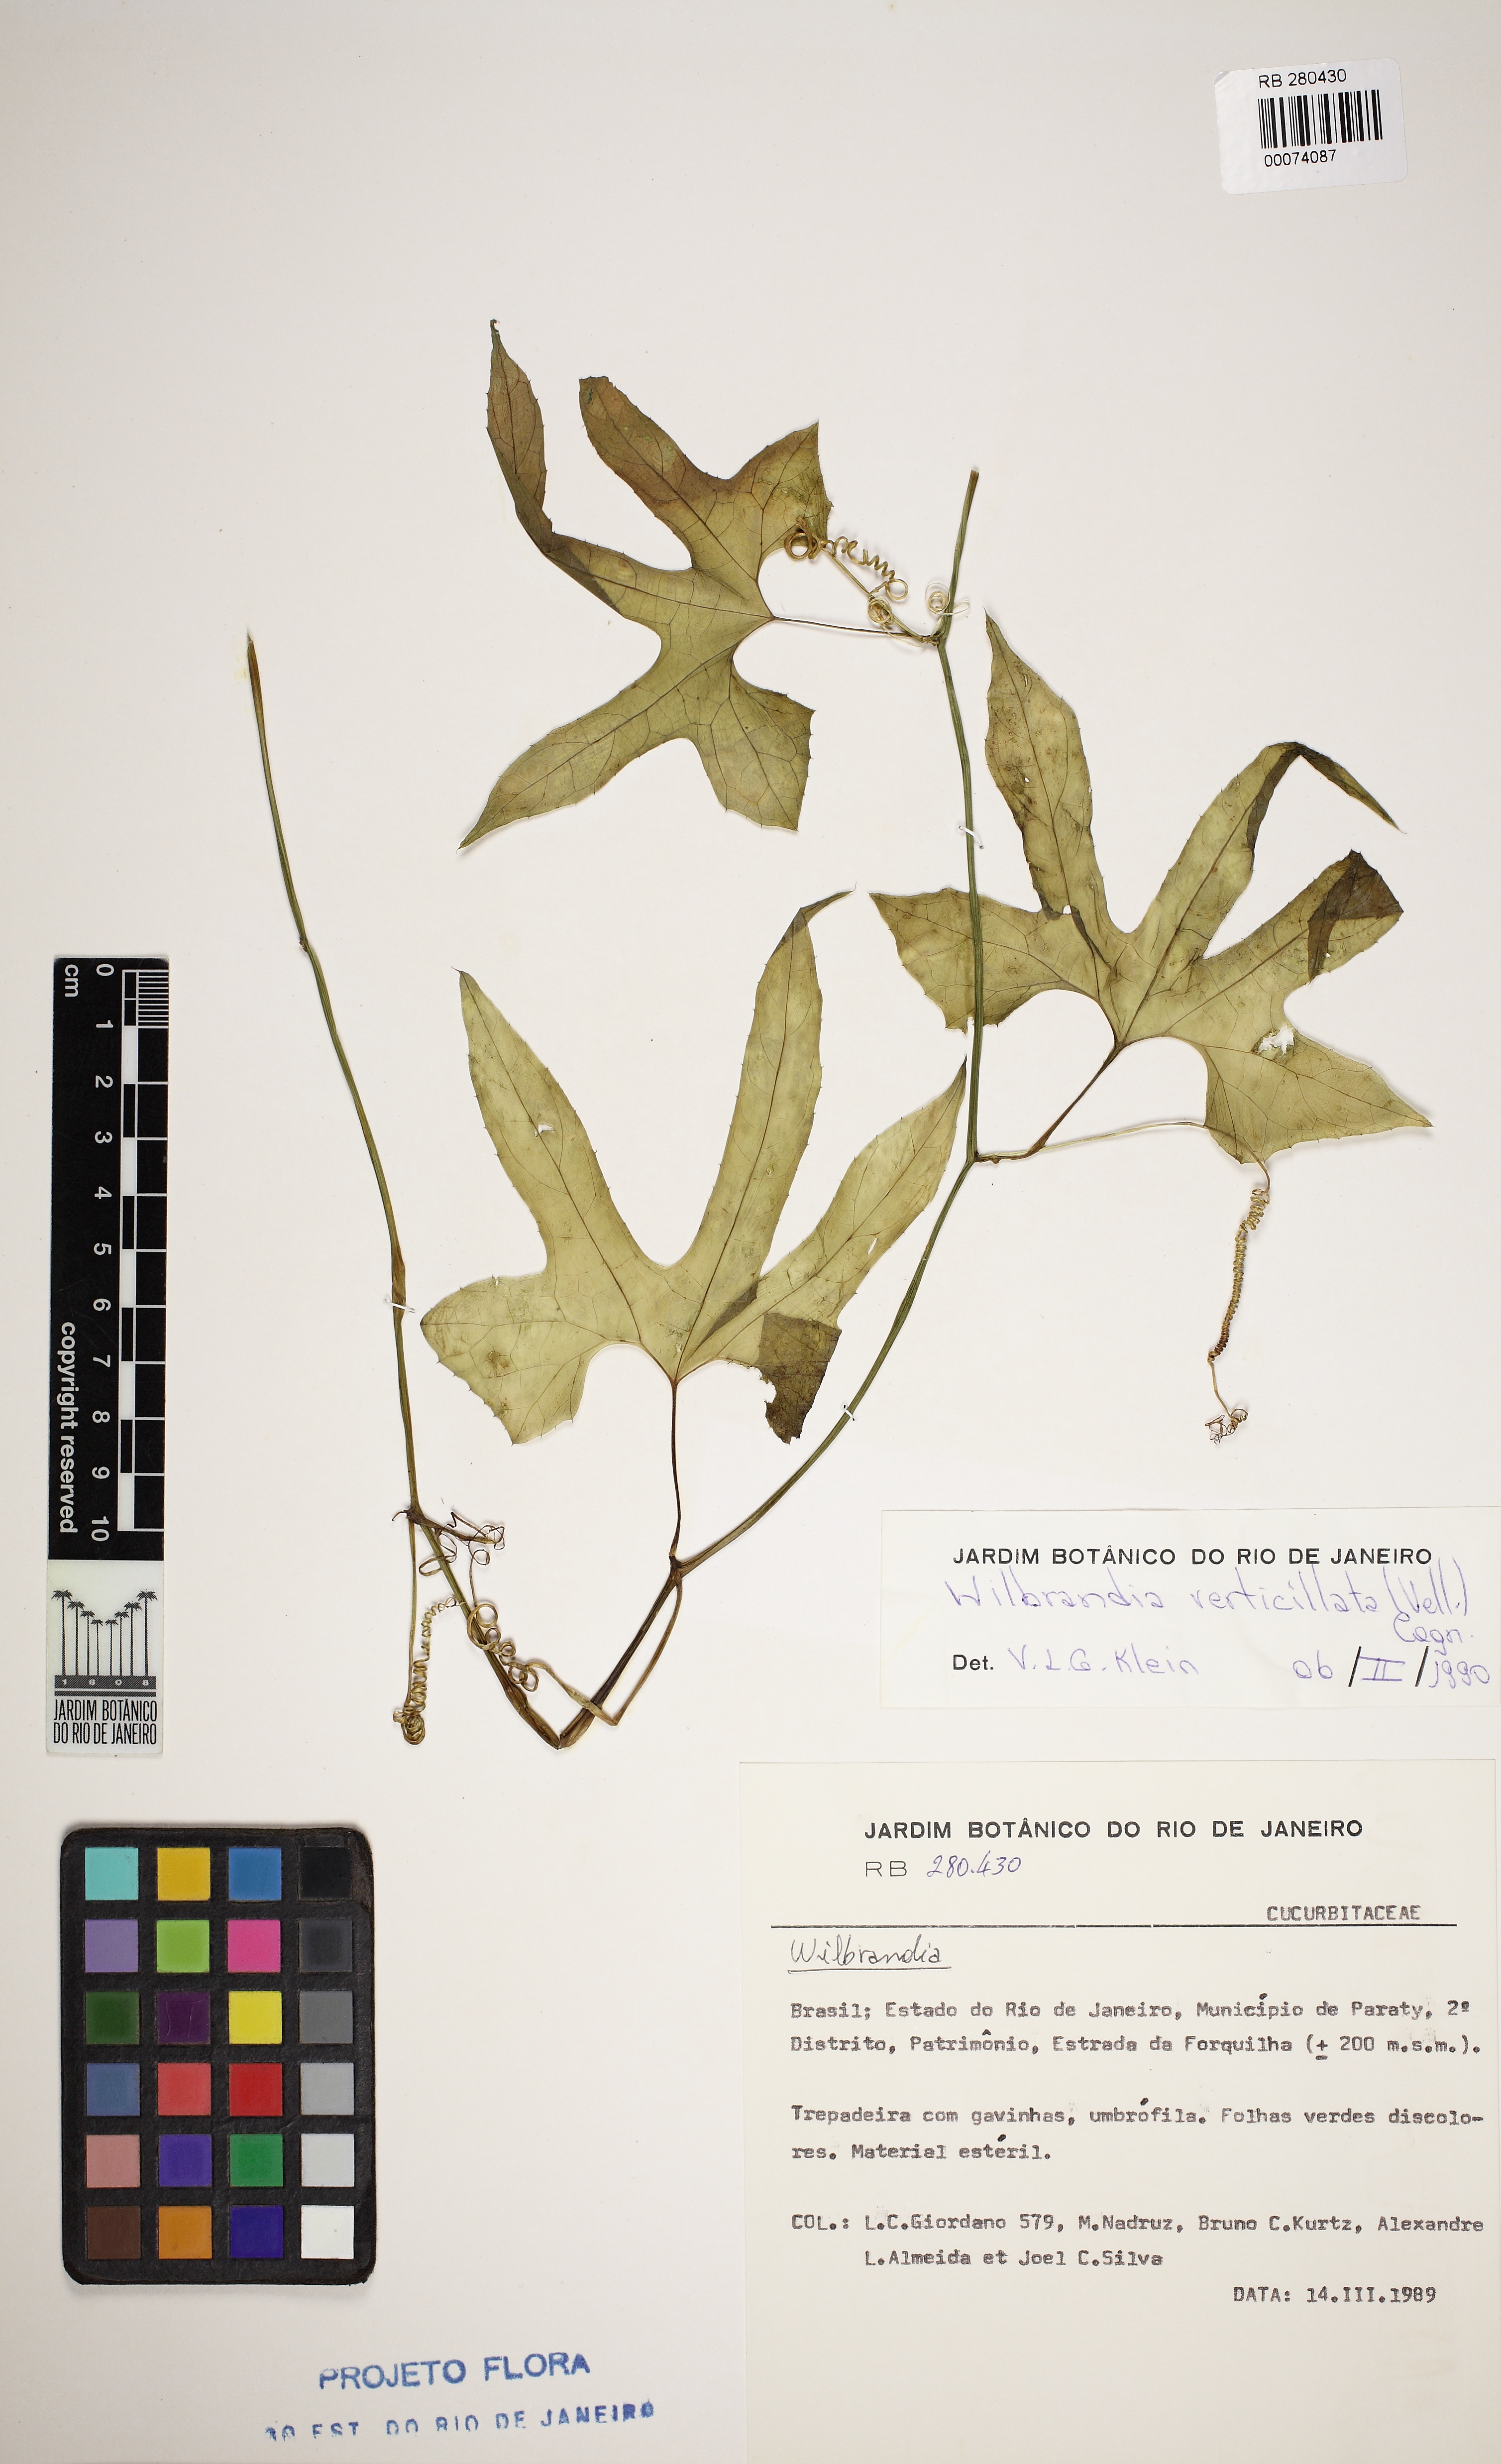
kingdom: Plantae
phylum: Tracheophyta
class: Magnoliopsida
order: Cucurbitales
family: Cucurbitaceae
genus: Wilbrandia
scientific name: Wilbrandia verticillata
